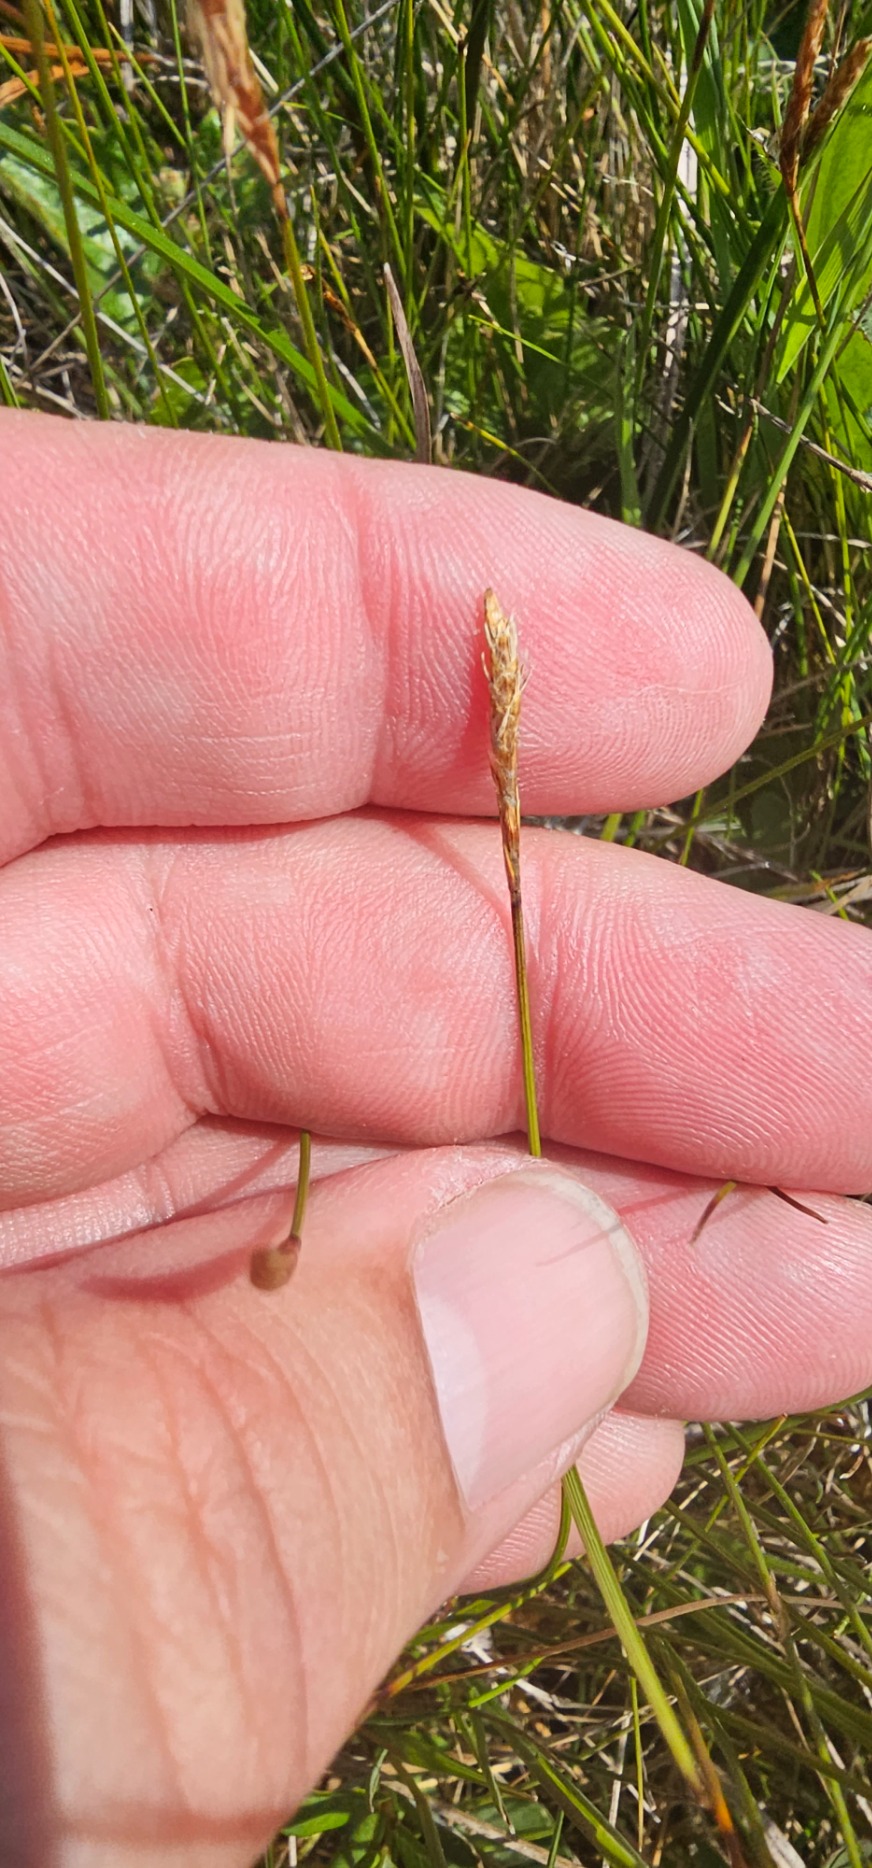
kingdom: Plantae
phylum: Tracheophyta
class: Liliopsida
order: Poales
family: Cyperaceae
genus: Carex
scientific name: Carex dioica
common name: Tvebo star
